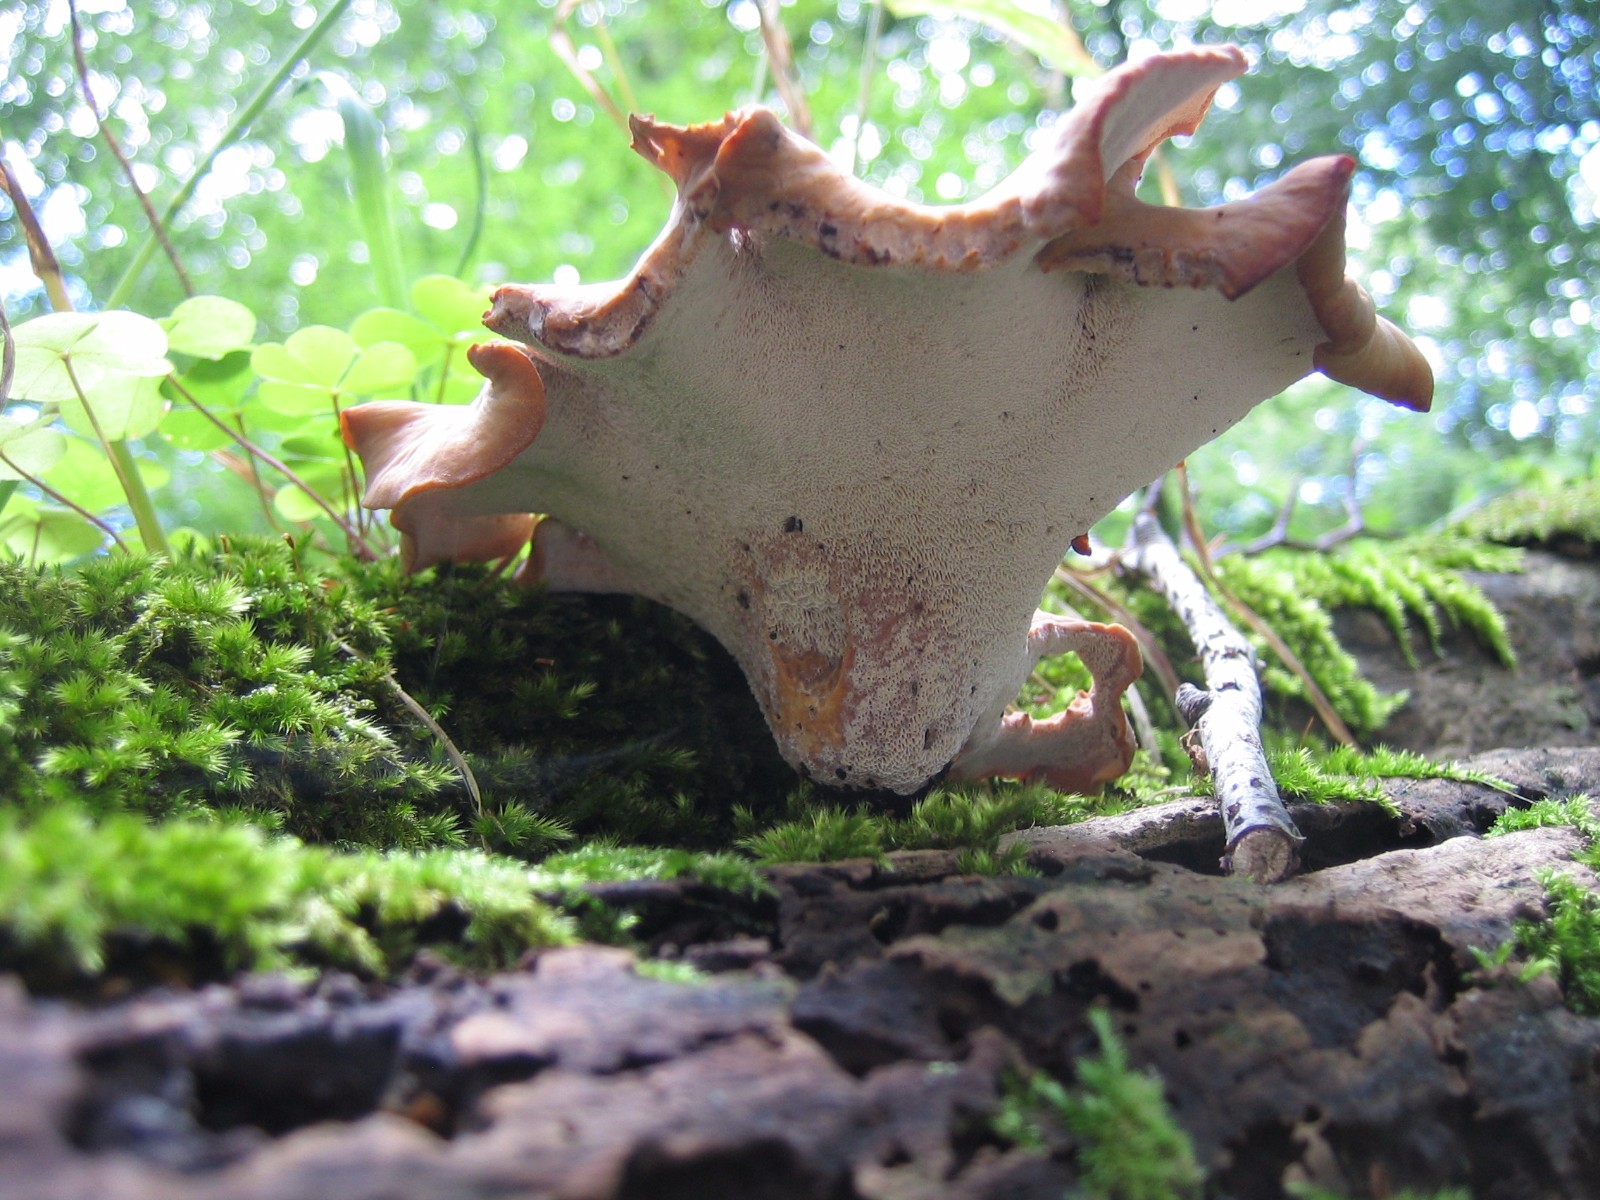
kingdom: Fungi
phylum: Basidiomycota
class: Agaricomycetes
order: Polyporales
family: Polyporaceae
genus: Cerioporus
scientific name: Cerioporus varius
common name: foranderlig stilkporesvamp
